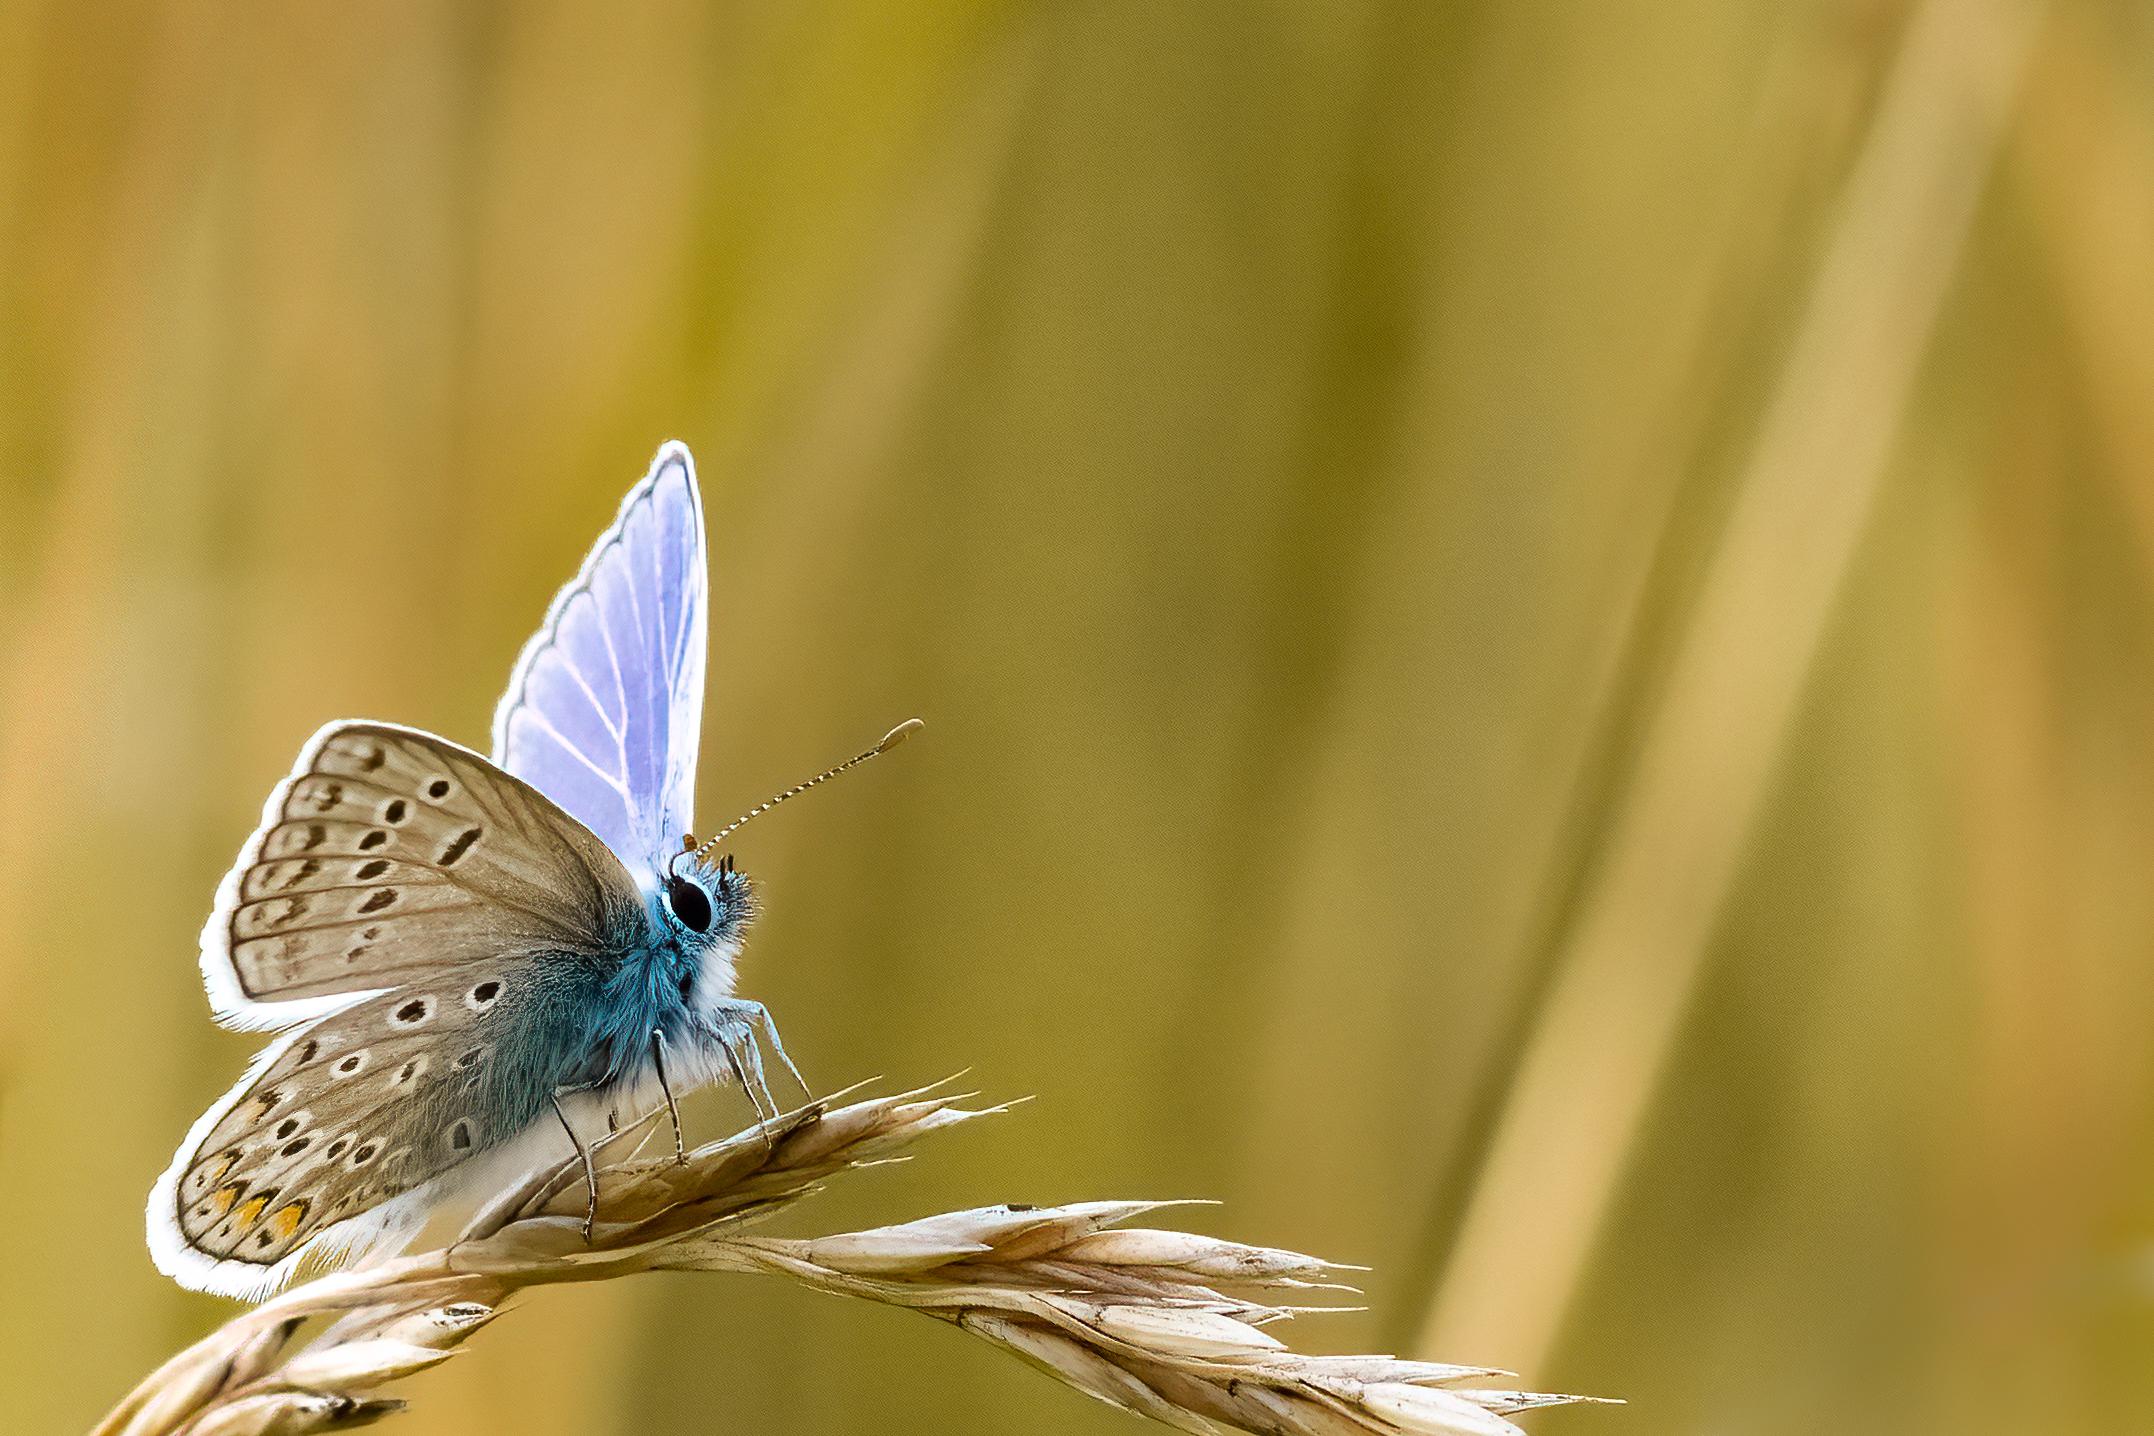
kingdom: Animalia
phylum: Arthropoda
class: Insecta
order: Lepidoptera
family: Lycaenidae
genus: Polyommatus
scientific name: Polyommatus icarus
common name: Almindelig blåfugl
